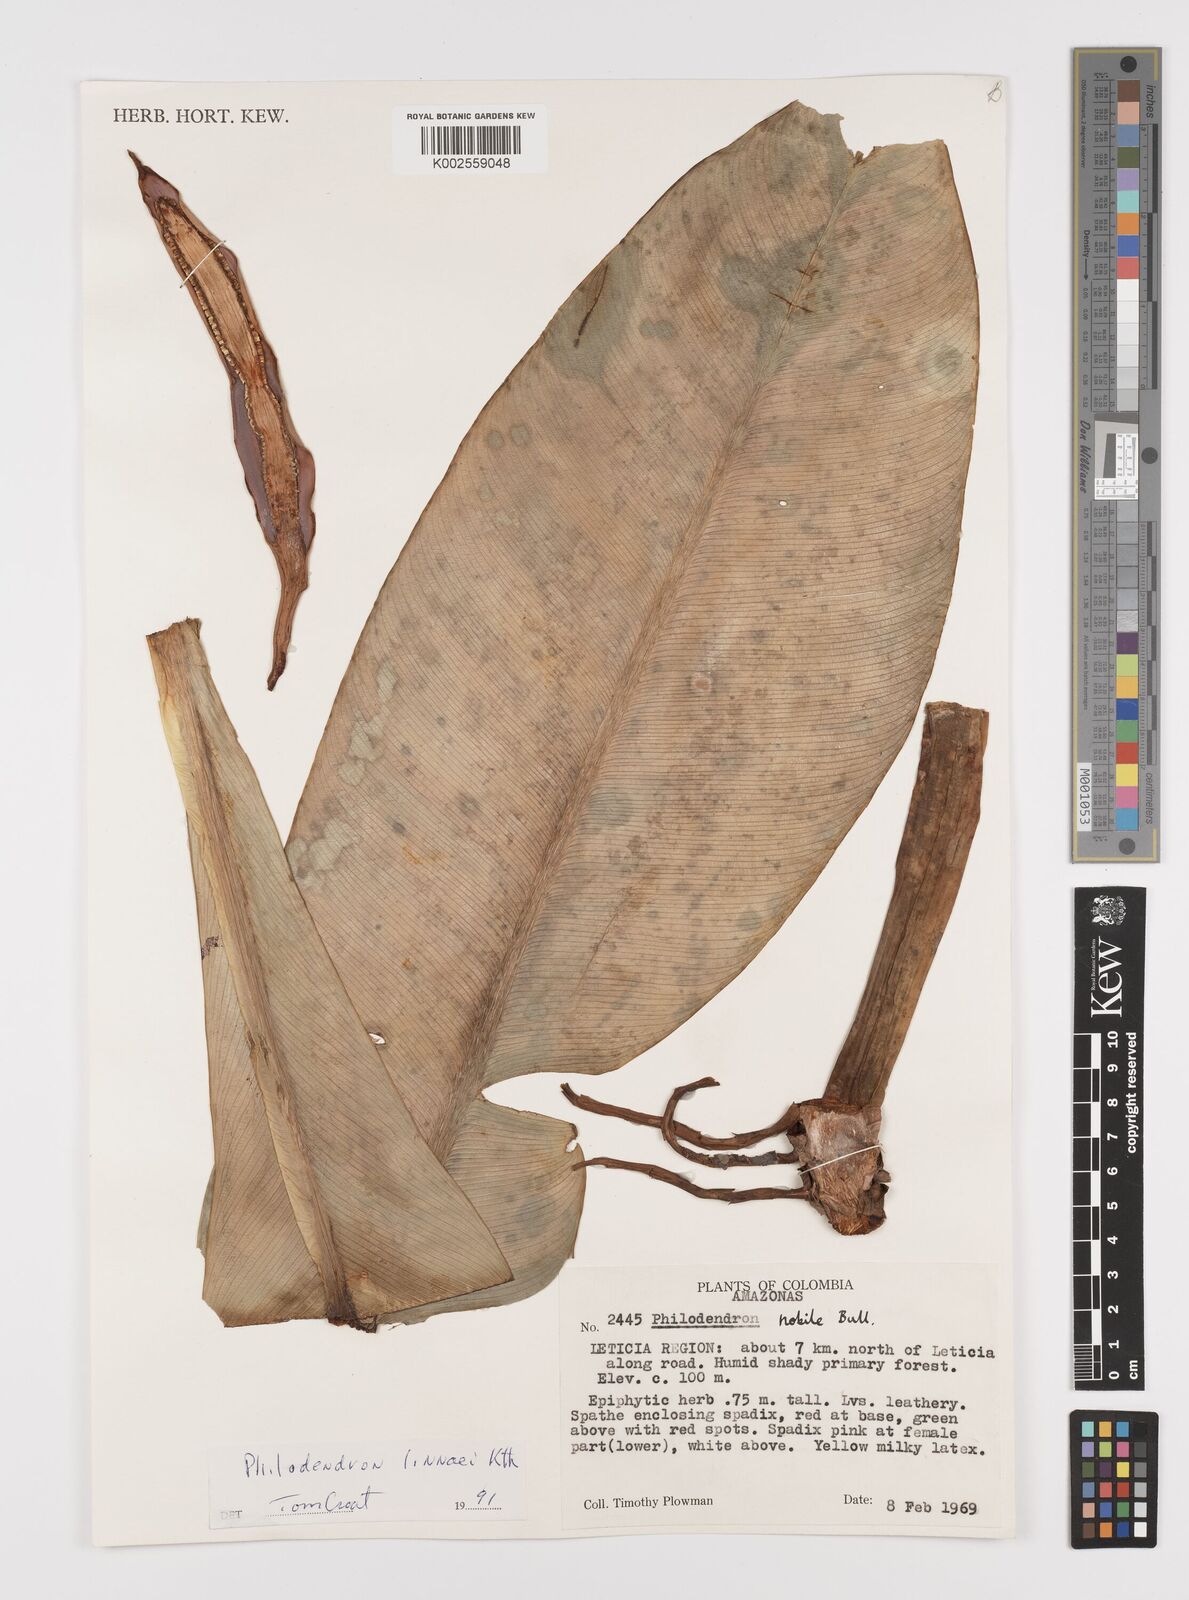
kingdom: Plantae
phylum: Tracheophyta
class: Liliopsida
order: Alismatales
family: Araceae
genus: Philodendron
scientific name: Philodendron linnaei
